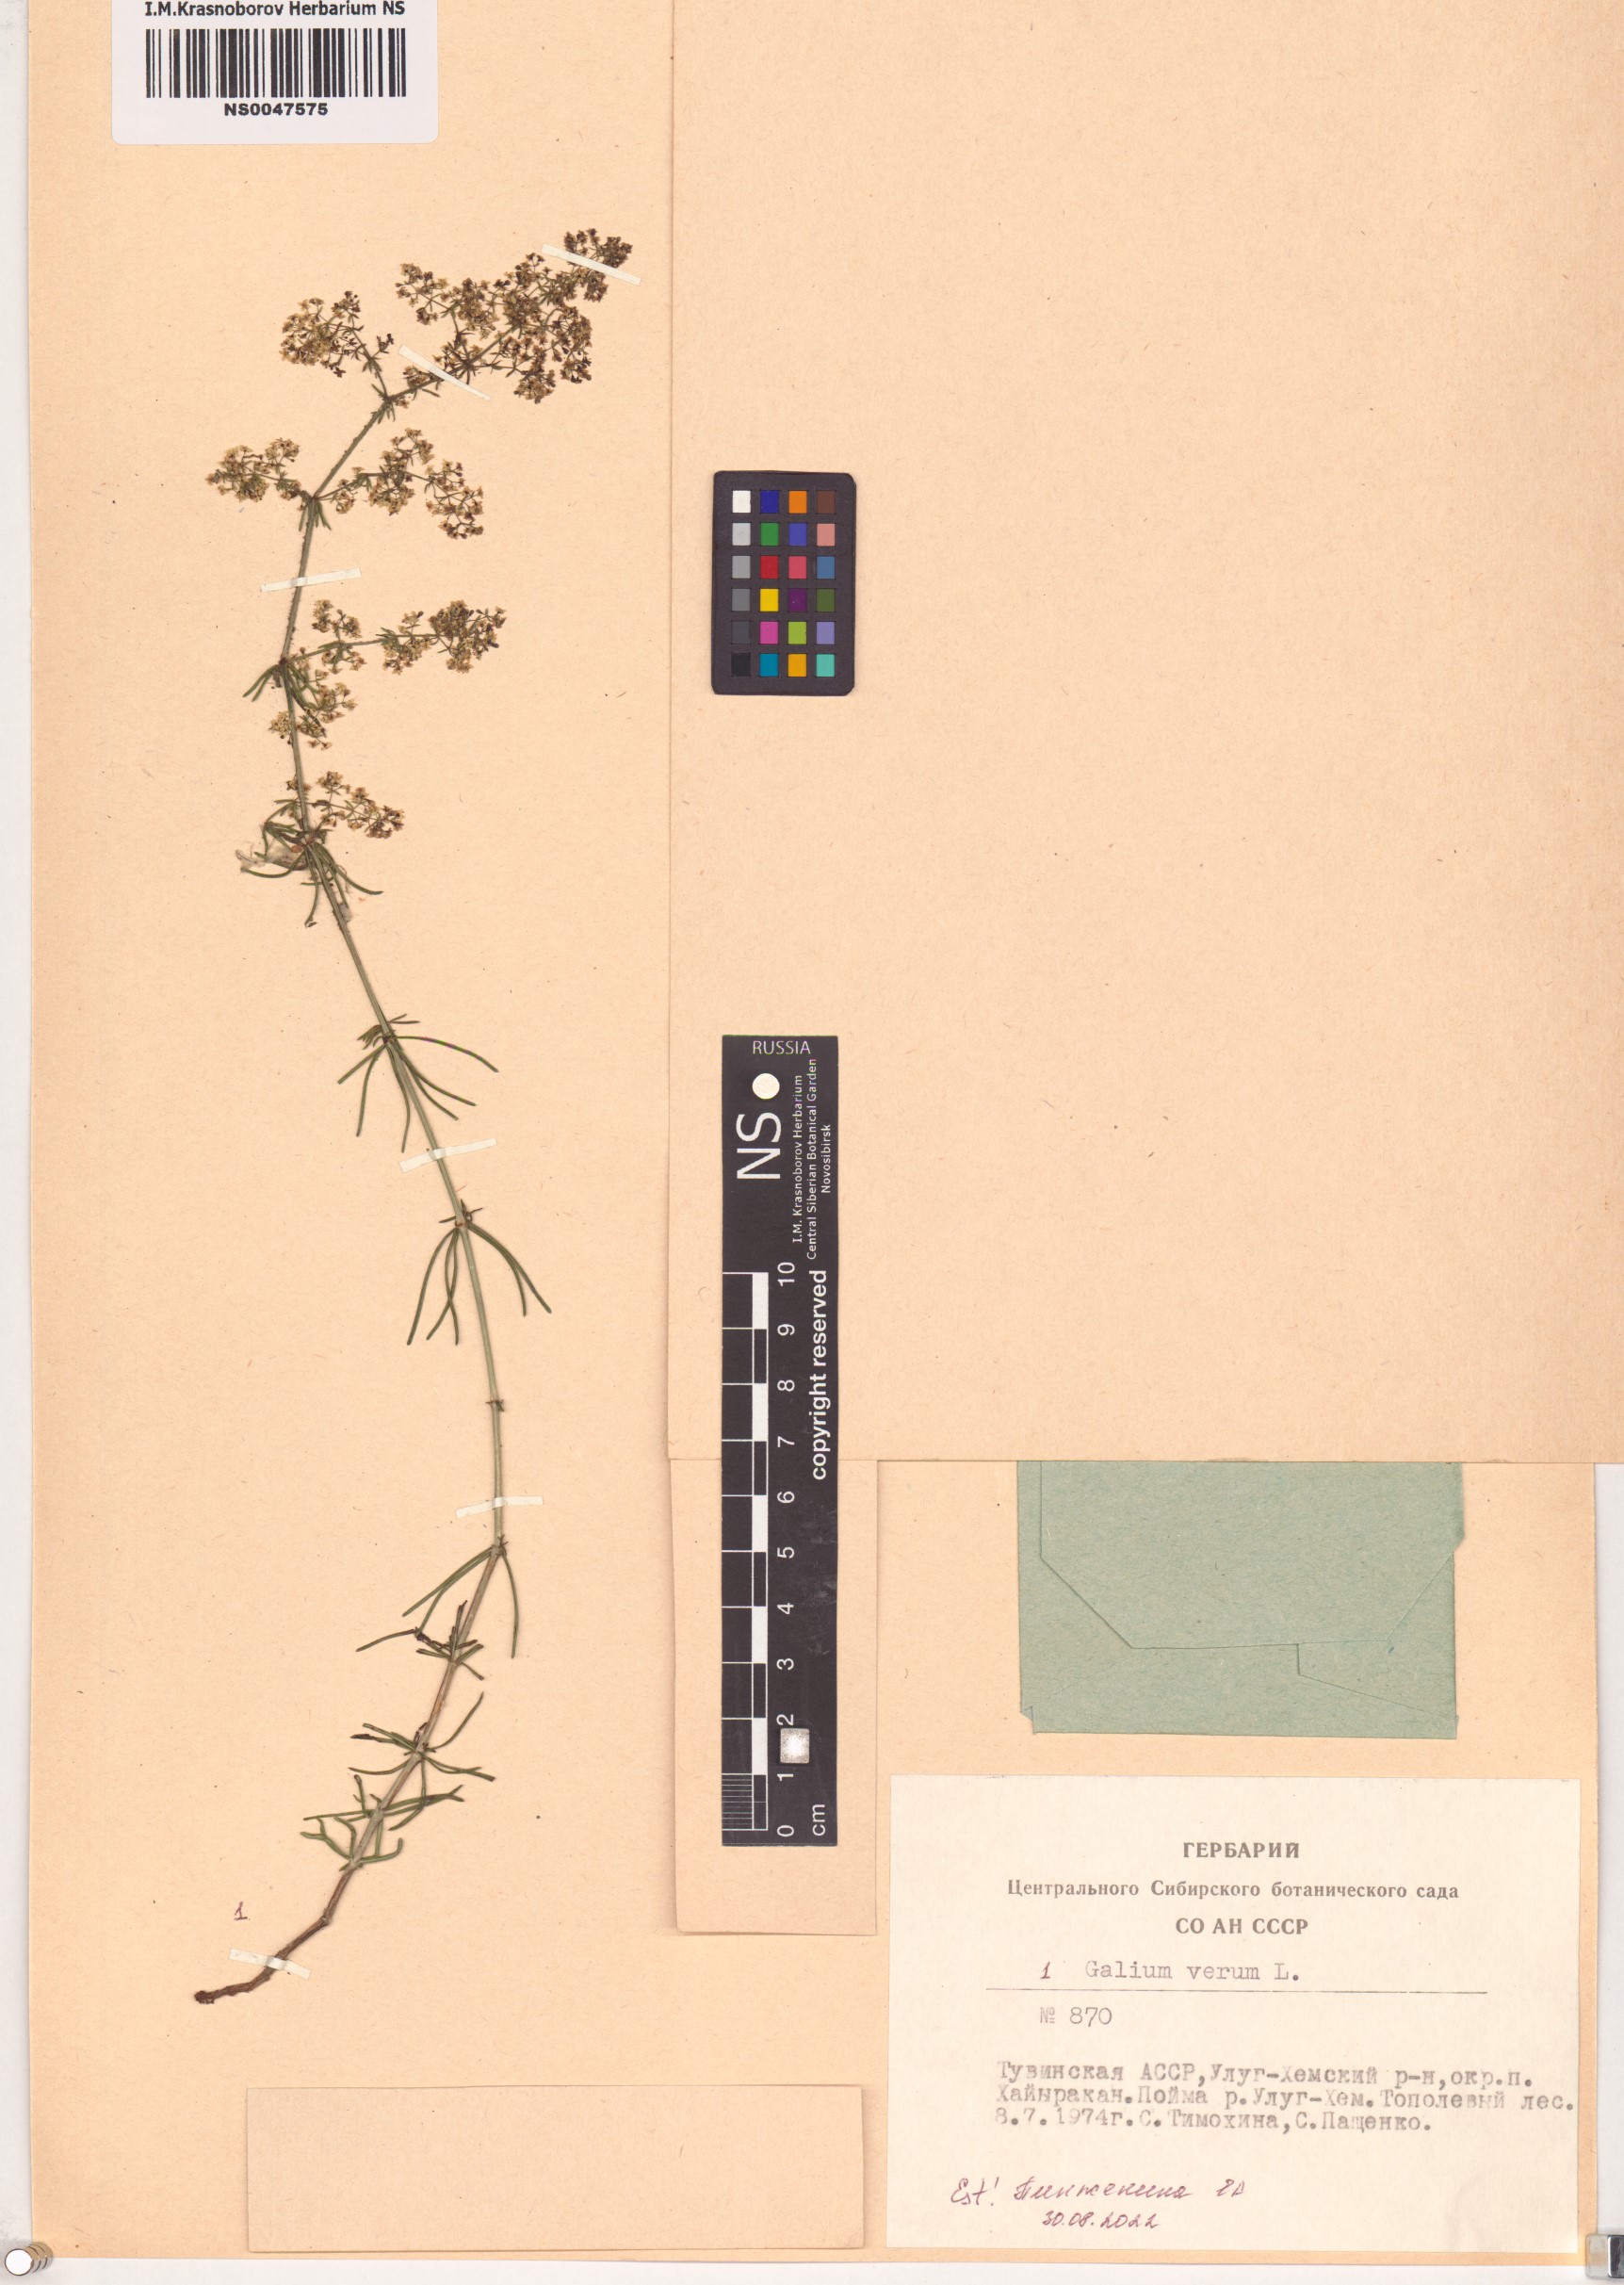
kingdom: Plantae
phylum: Tracheophyta
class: Magnoliopsida
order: Gentianales
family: Rubiaceae
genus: Galium
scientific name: Galium verum
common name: Lady's bedstraw
